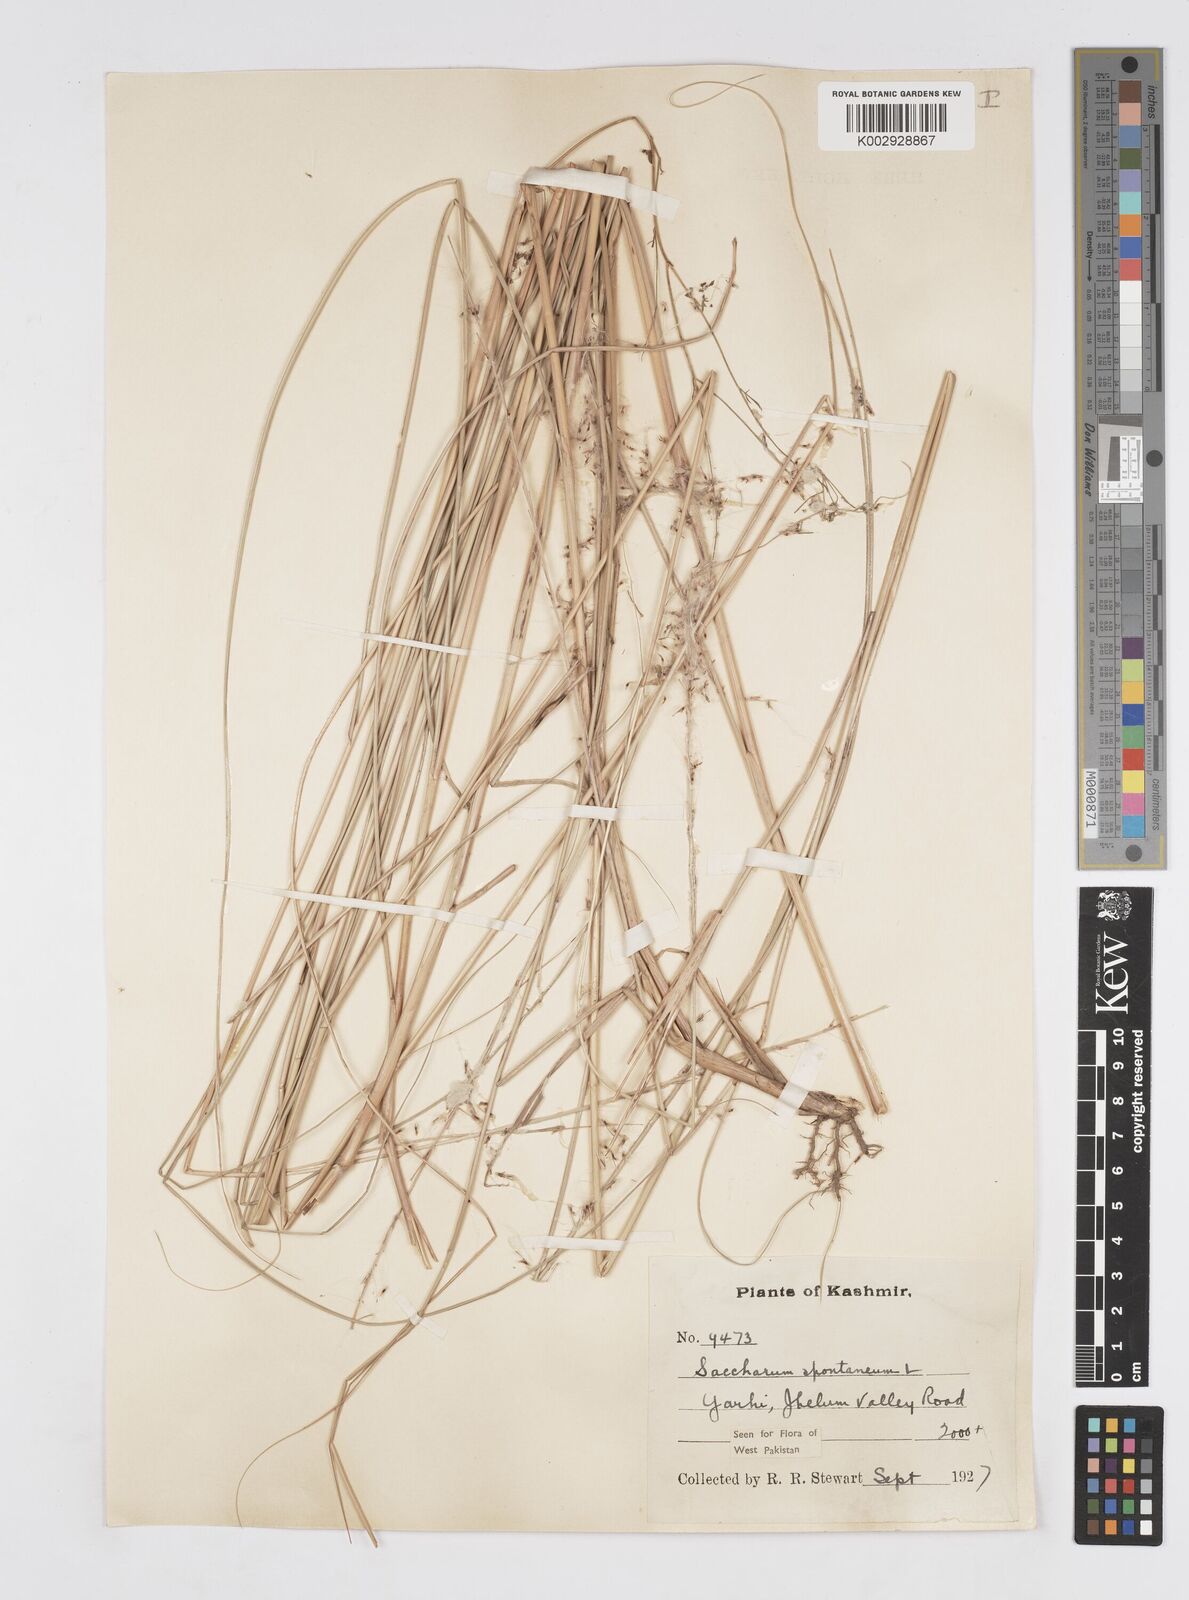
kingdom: Plantae
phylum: Tracheophyta
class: Liliopsida
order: Poales
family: Poaceae
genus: Saccharum
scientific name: Saccharum spontaneum
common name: Wild sugarcane
